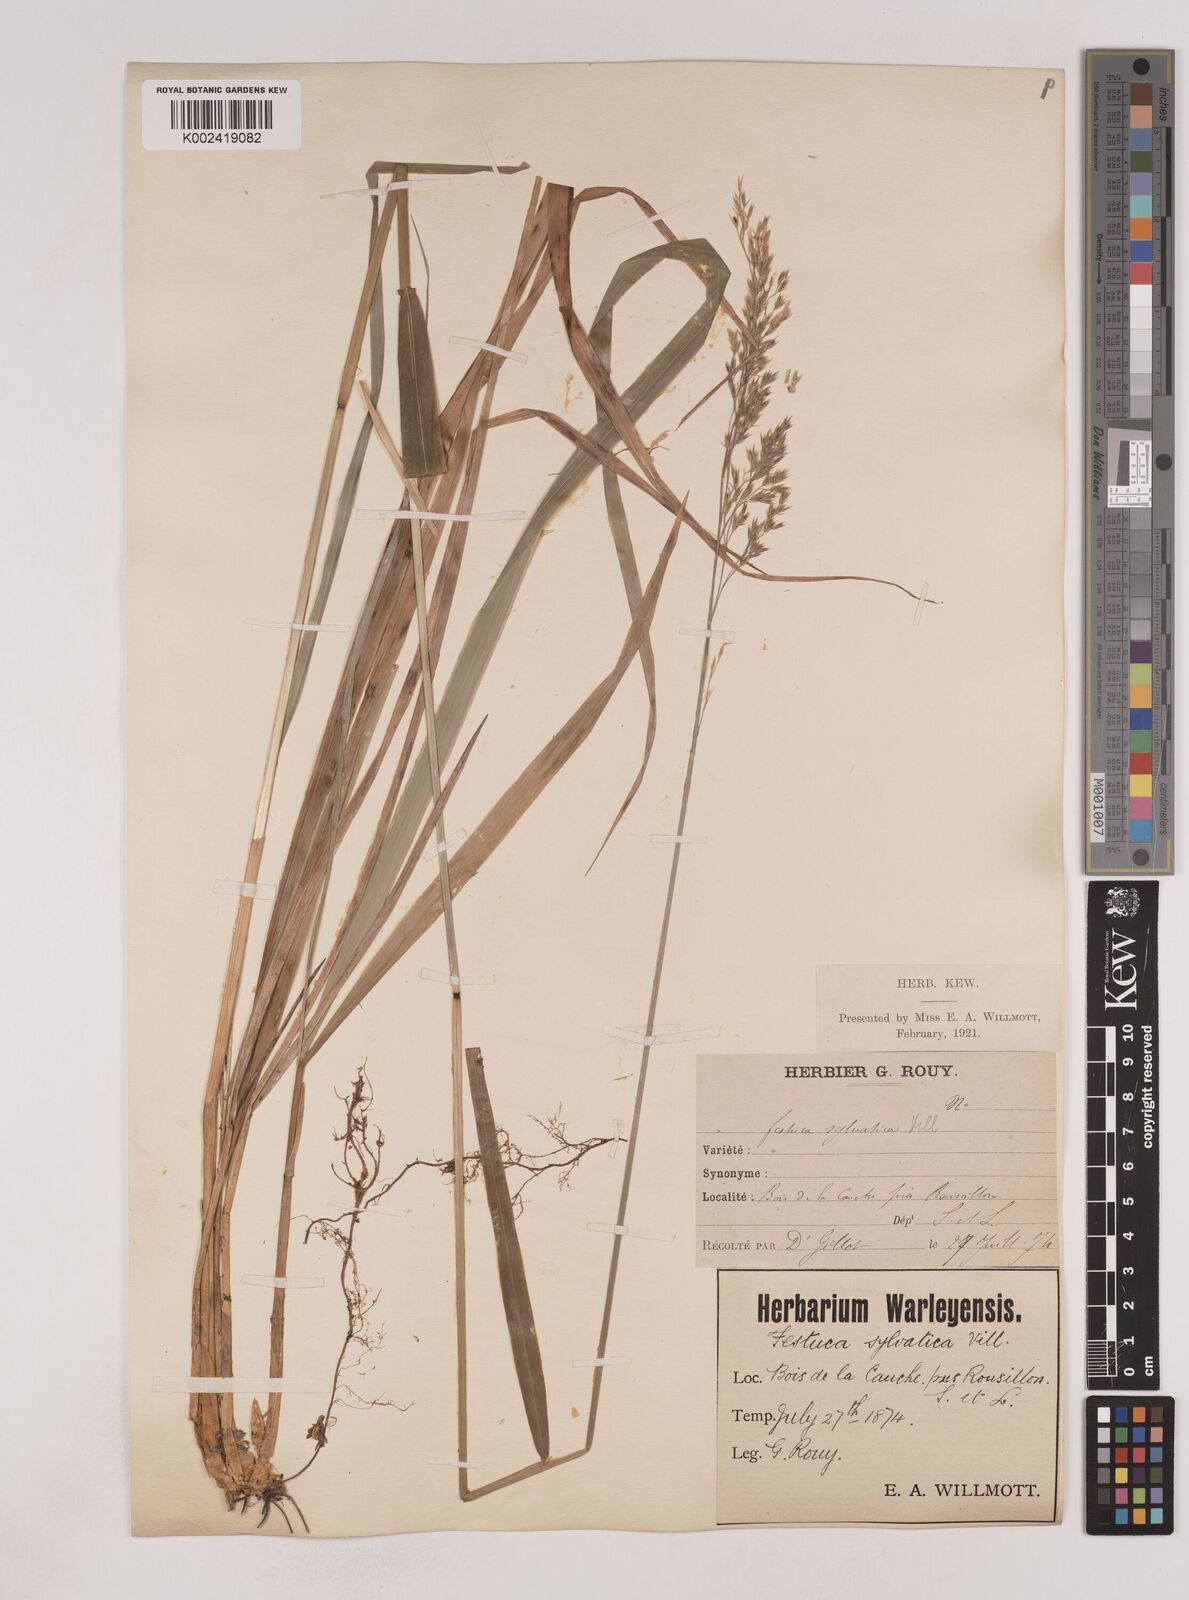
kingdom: Plantae
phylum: Tracheophyta
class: Liliopsida
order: Poales
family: Poaceae
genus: Festuca
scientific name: Festuca drymeja
